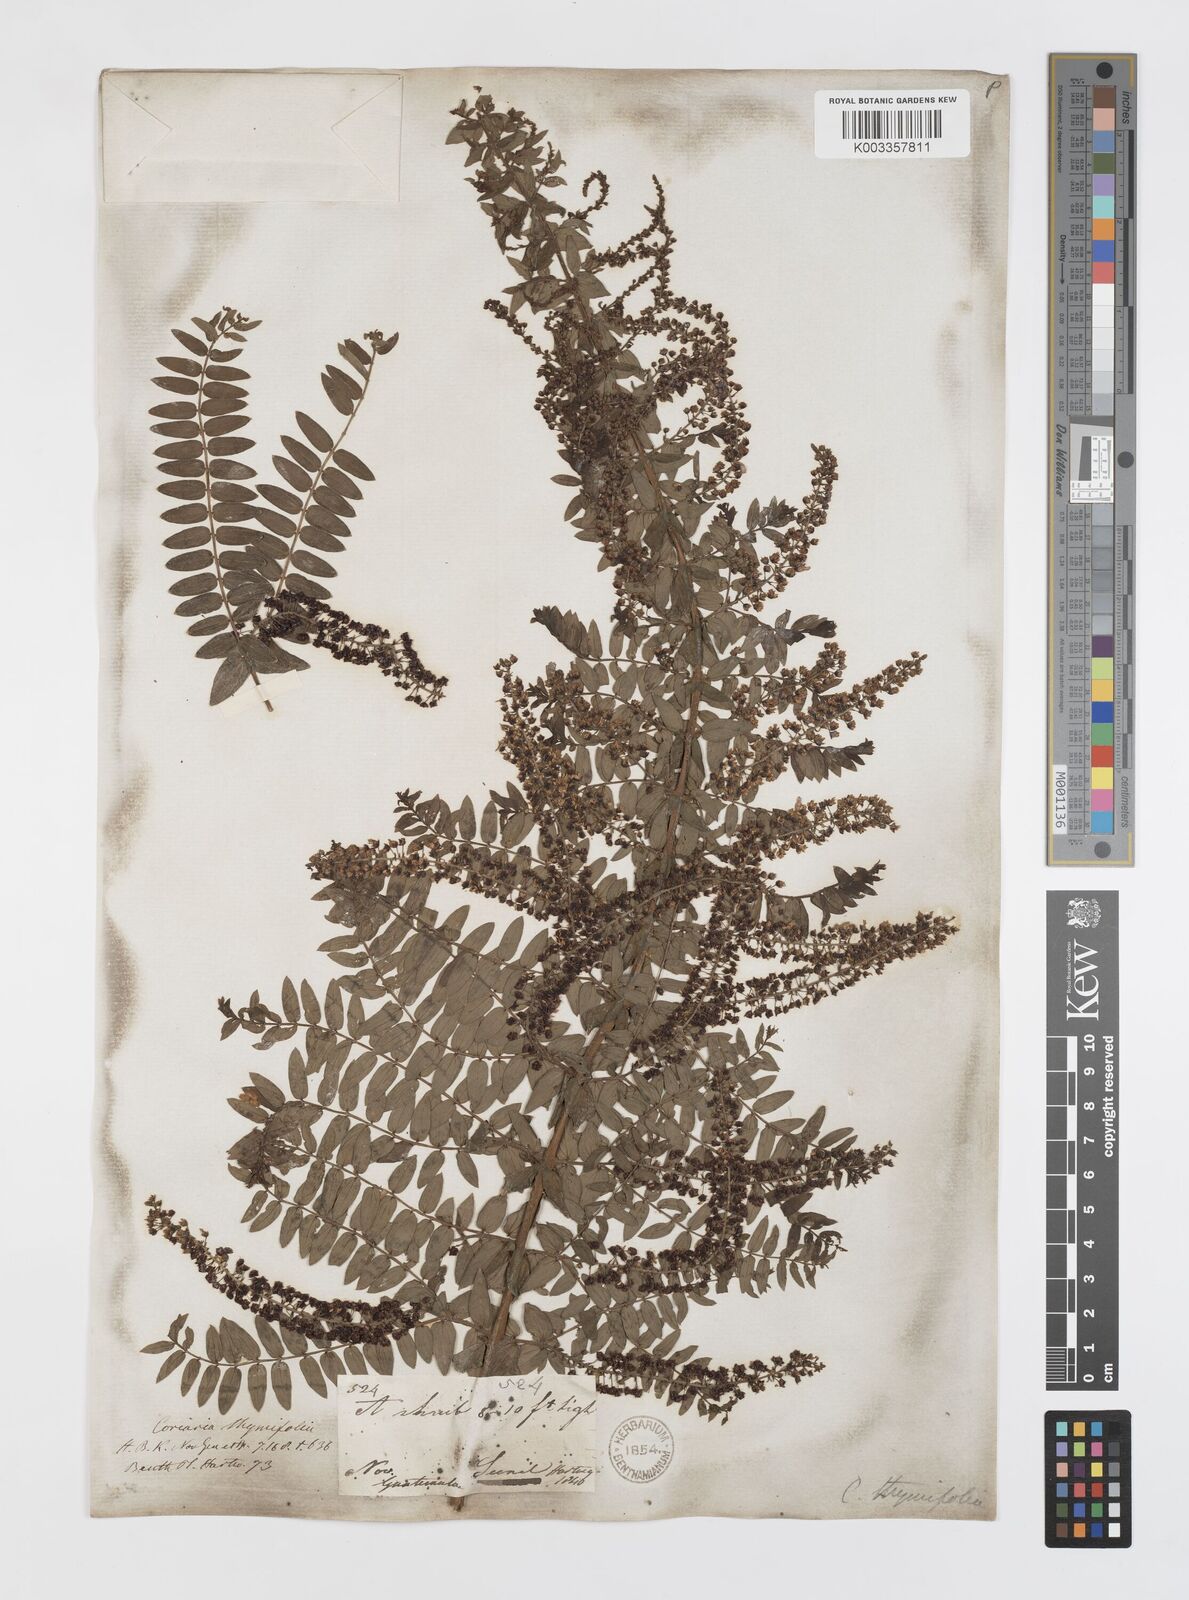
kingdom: Plantae
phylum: Tracheophyta
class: Magnoliopsida
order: Cucurbitales
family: Coriariaceae
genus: Coriaria
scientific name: Coriaria microphylla
